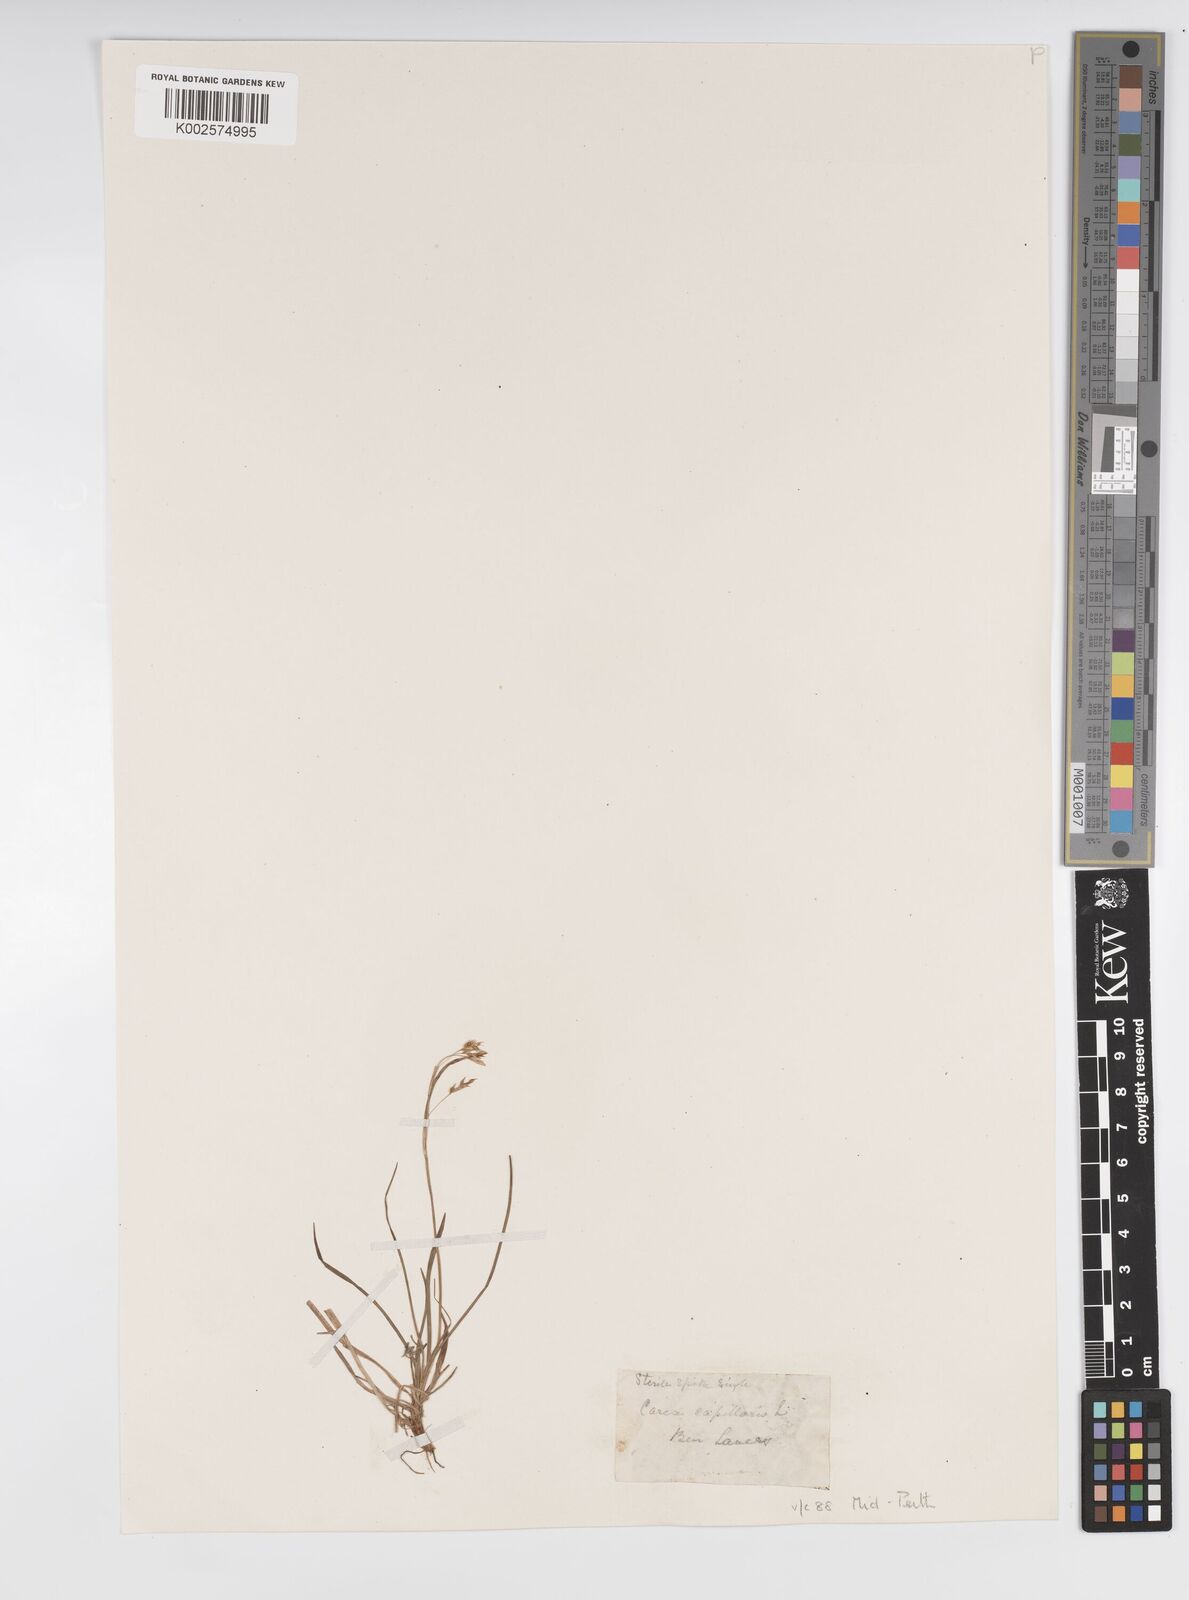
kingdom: Plantae
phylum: Tracheophyta
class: Liliopsida
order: Poales
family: Cyperaceae
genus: Carex
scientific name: Carex capillaris
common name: Hair sedge
